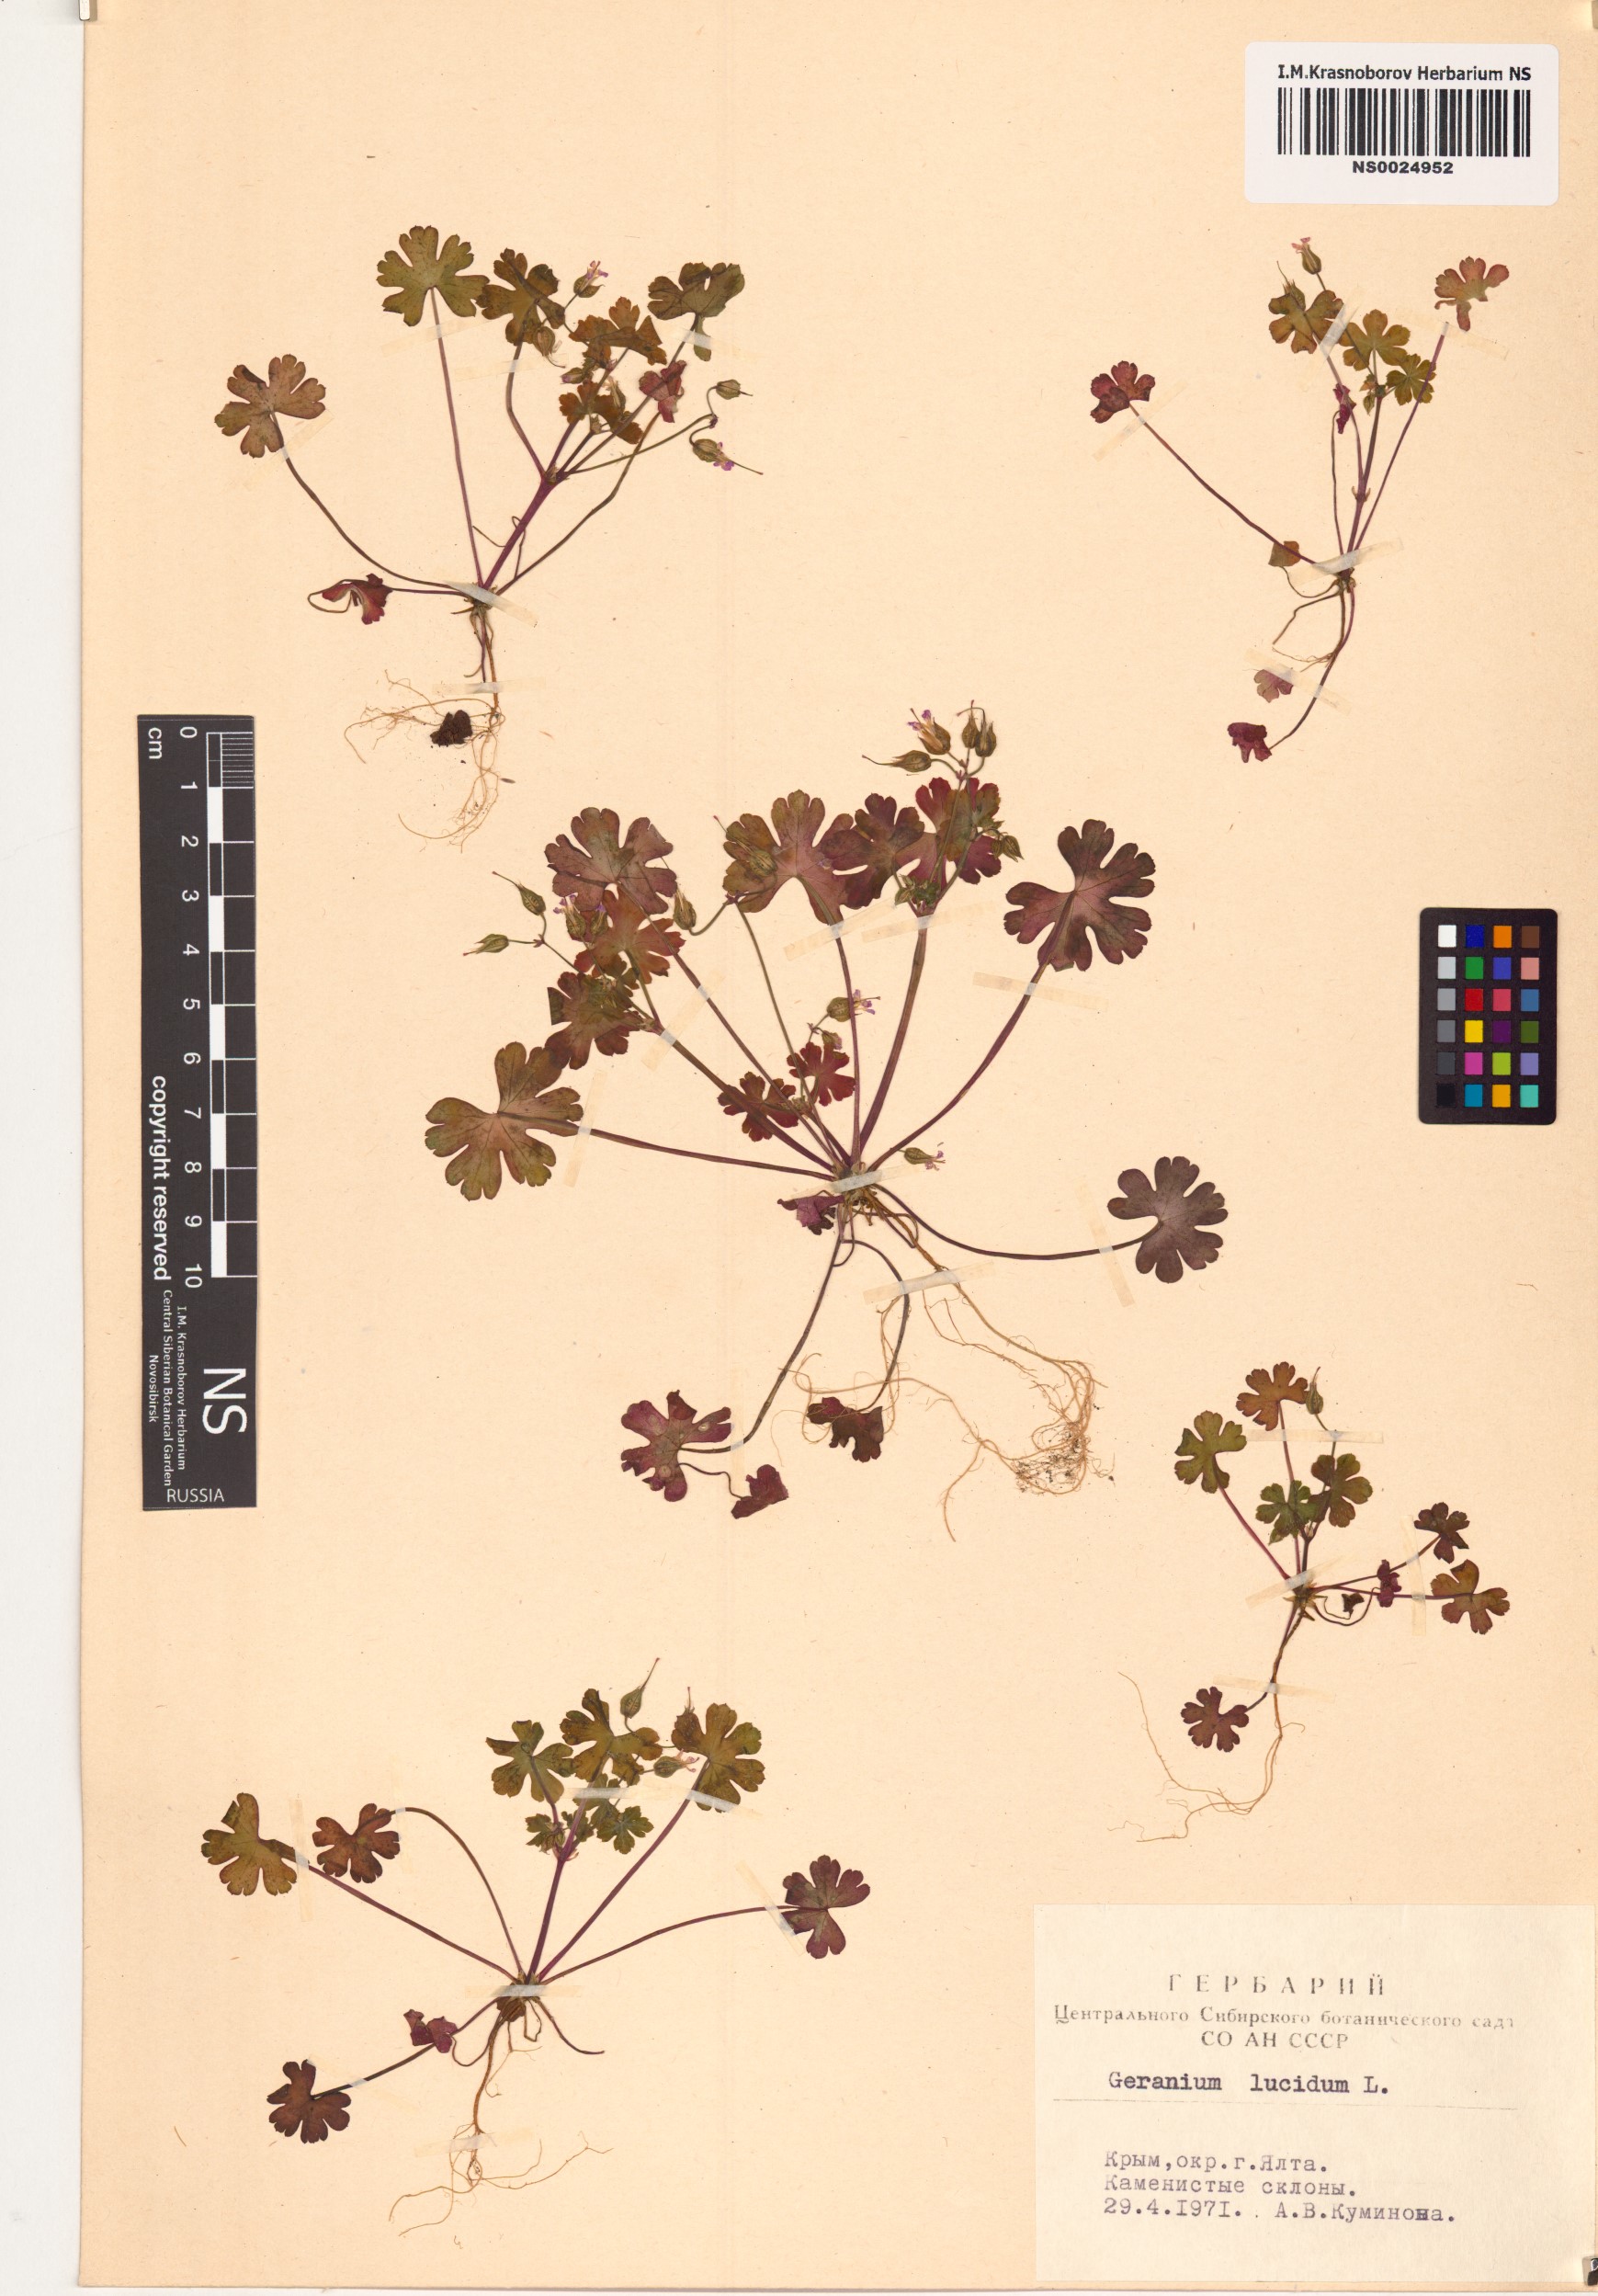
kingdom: Plantae
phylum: Tracheophyta
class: Magnoliopsida
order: Geraniales
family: Geraniaceae
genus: Geranium
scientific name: Geranium lucidum
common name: Shining crane's-bill
